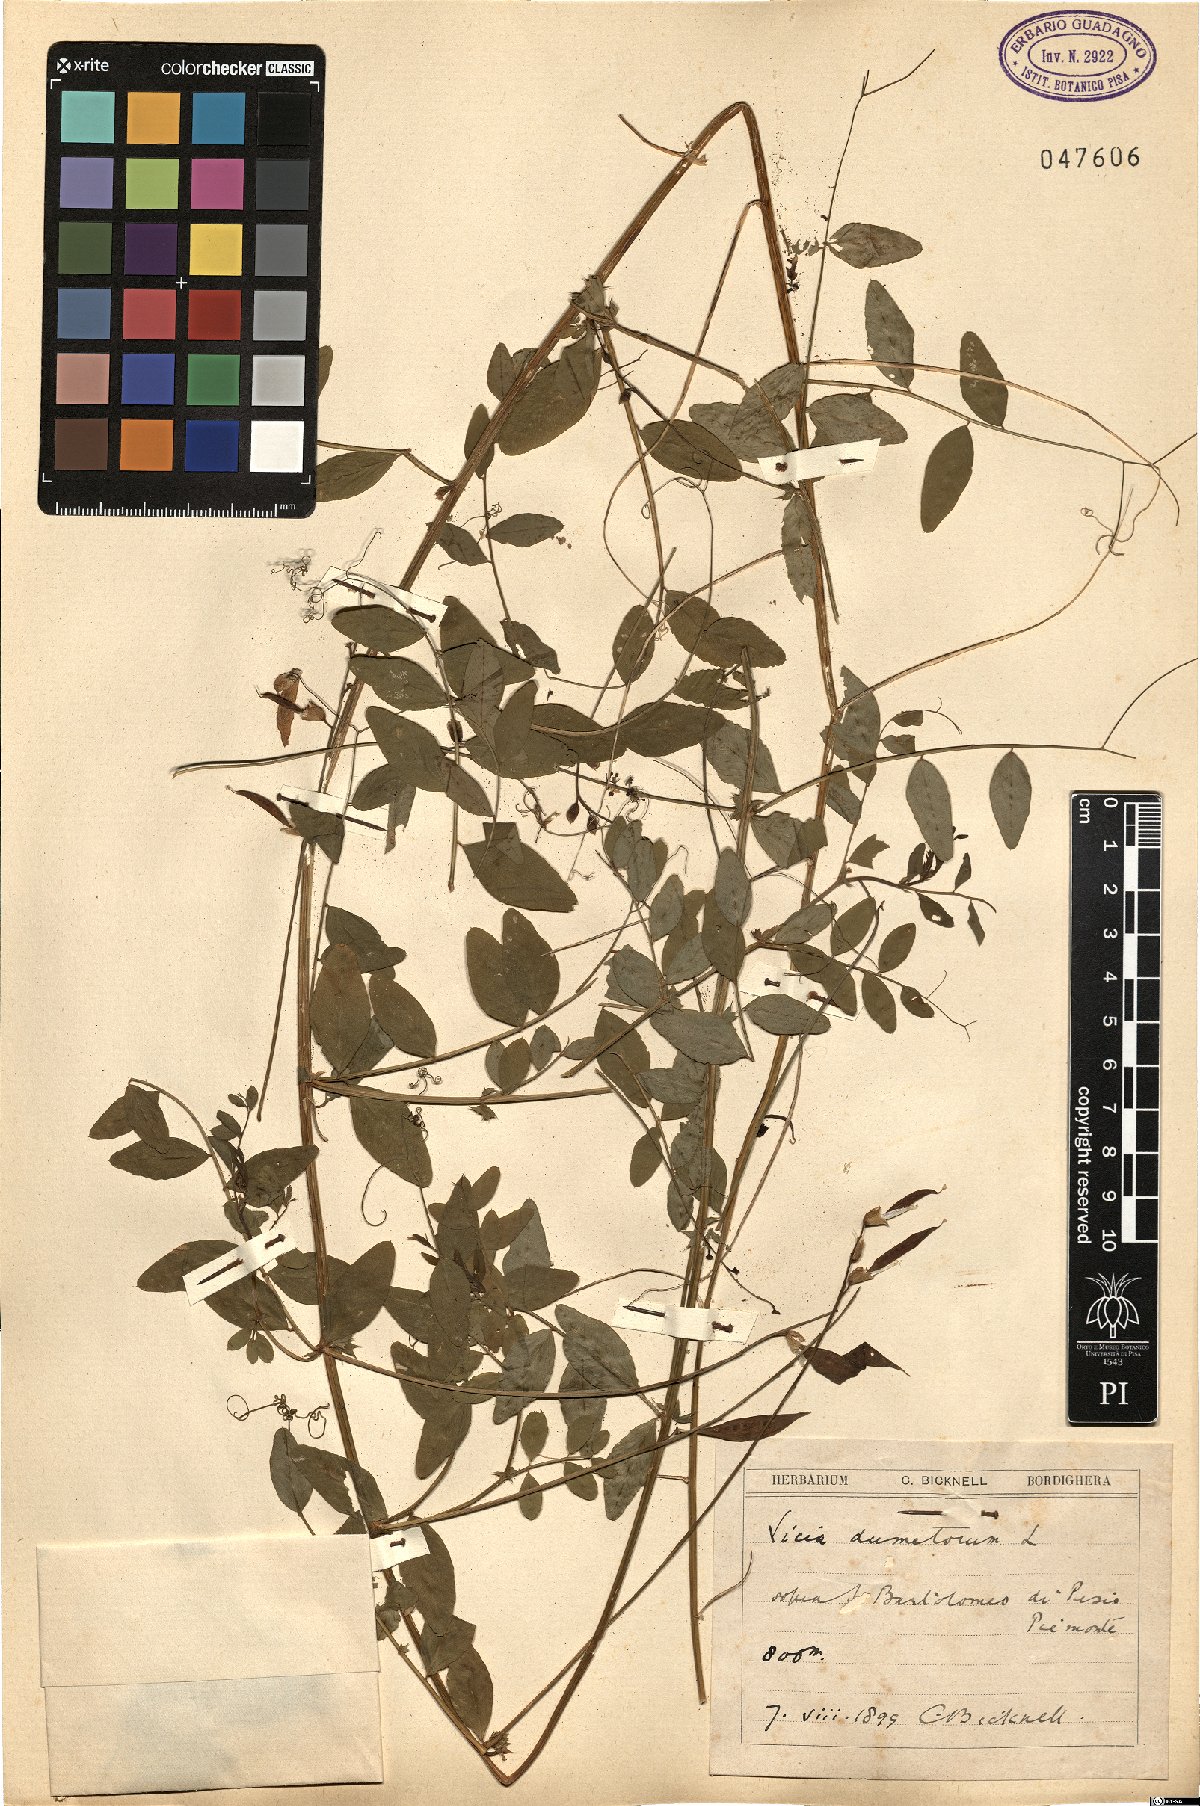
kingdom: Plantae
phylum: Tracheophyta
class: Magnoliopsida
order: Fabales
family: Fabaceae
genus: Vicia
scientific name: Vicia dumetorum
